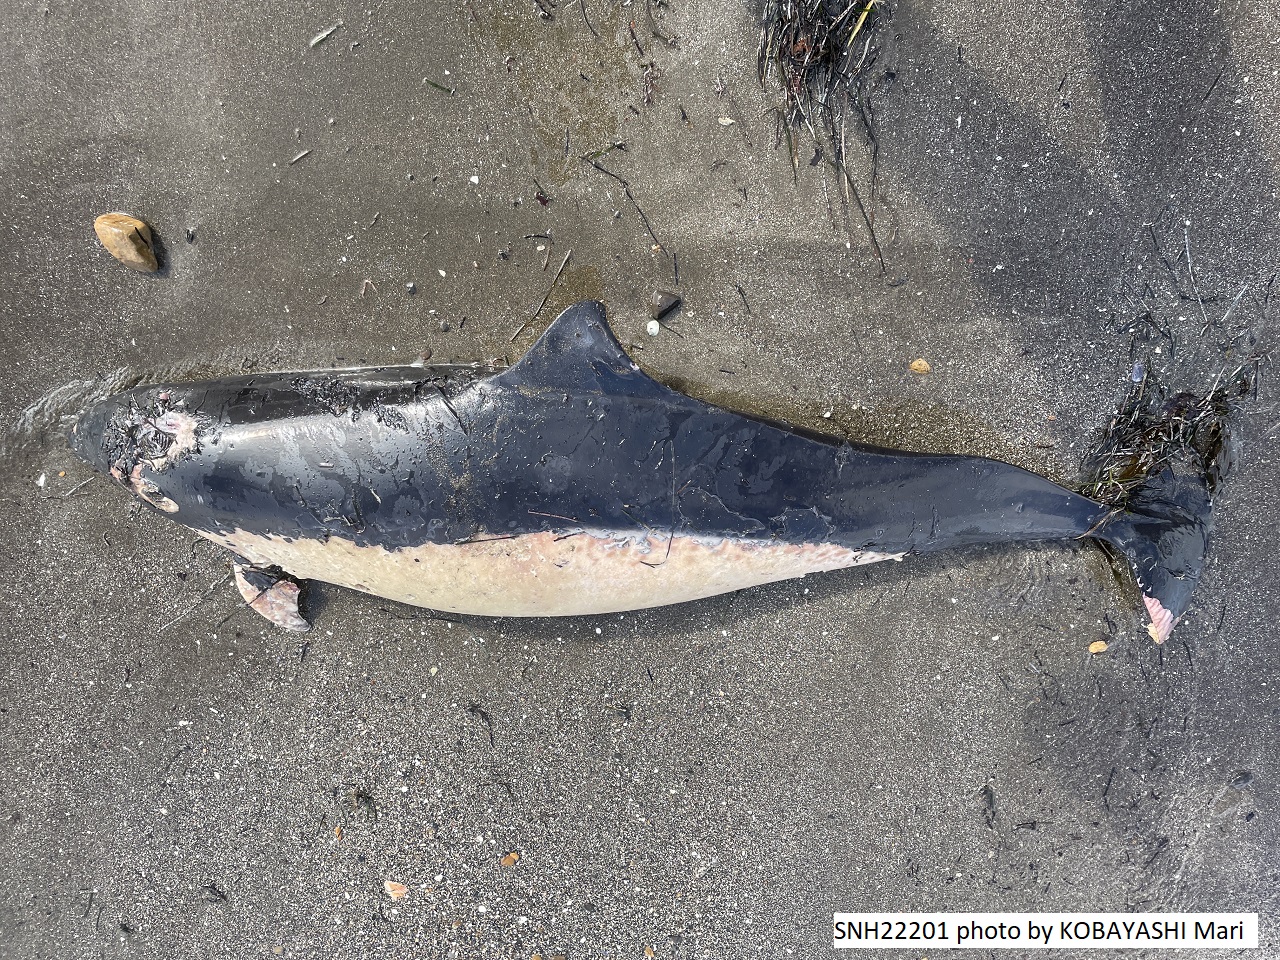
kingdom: Animalia
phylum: Chordata
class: Mammalia
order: Cetacea
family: Phocoenidae
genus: Phocoenoides
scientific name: Phocoenoides dalli
